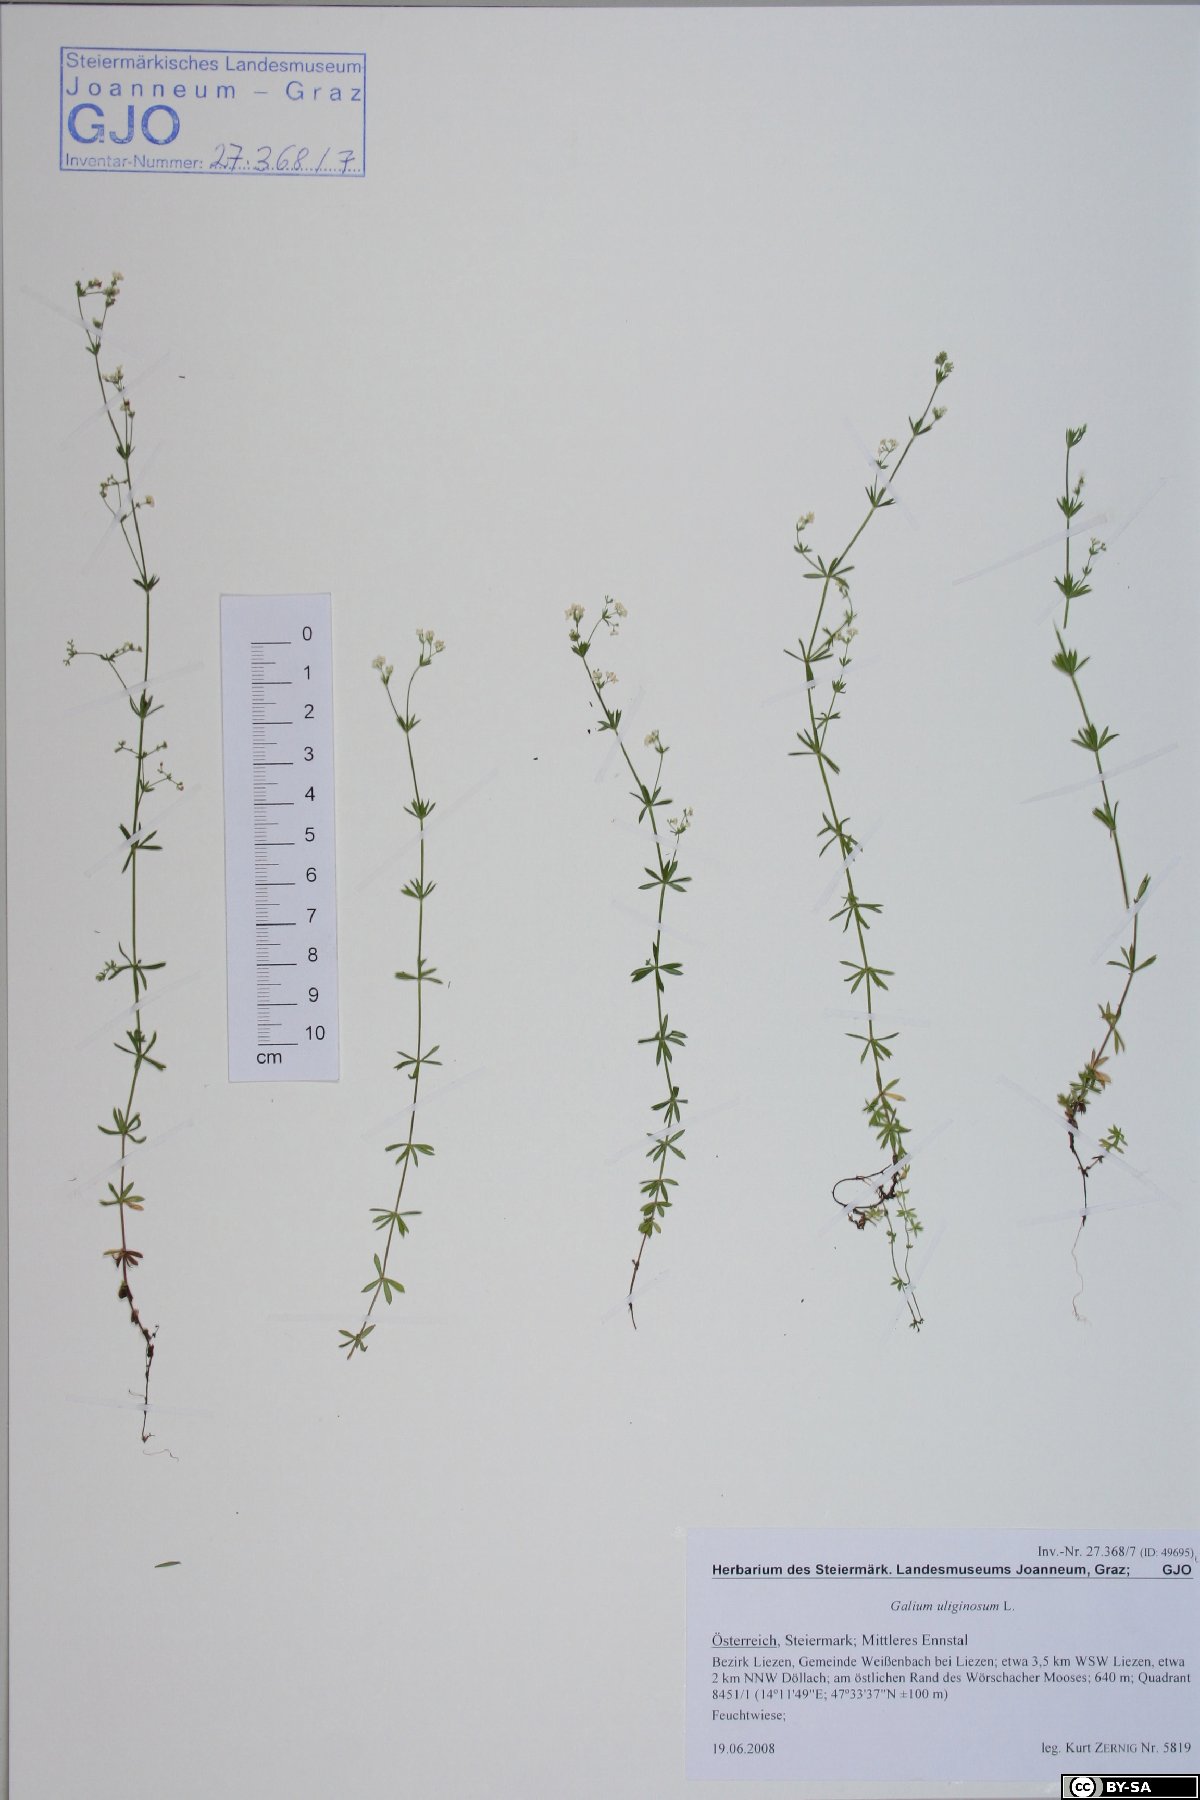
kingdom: Plantae
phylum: Tracheophyta
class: Magnoliopsida
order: Gentianales
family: Rubiaceae
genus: Galium
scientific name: Galium uliginosum
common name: Fen bedstraw
